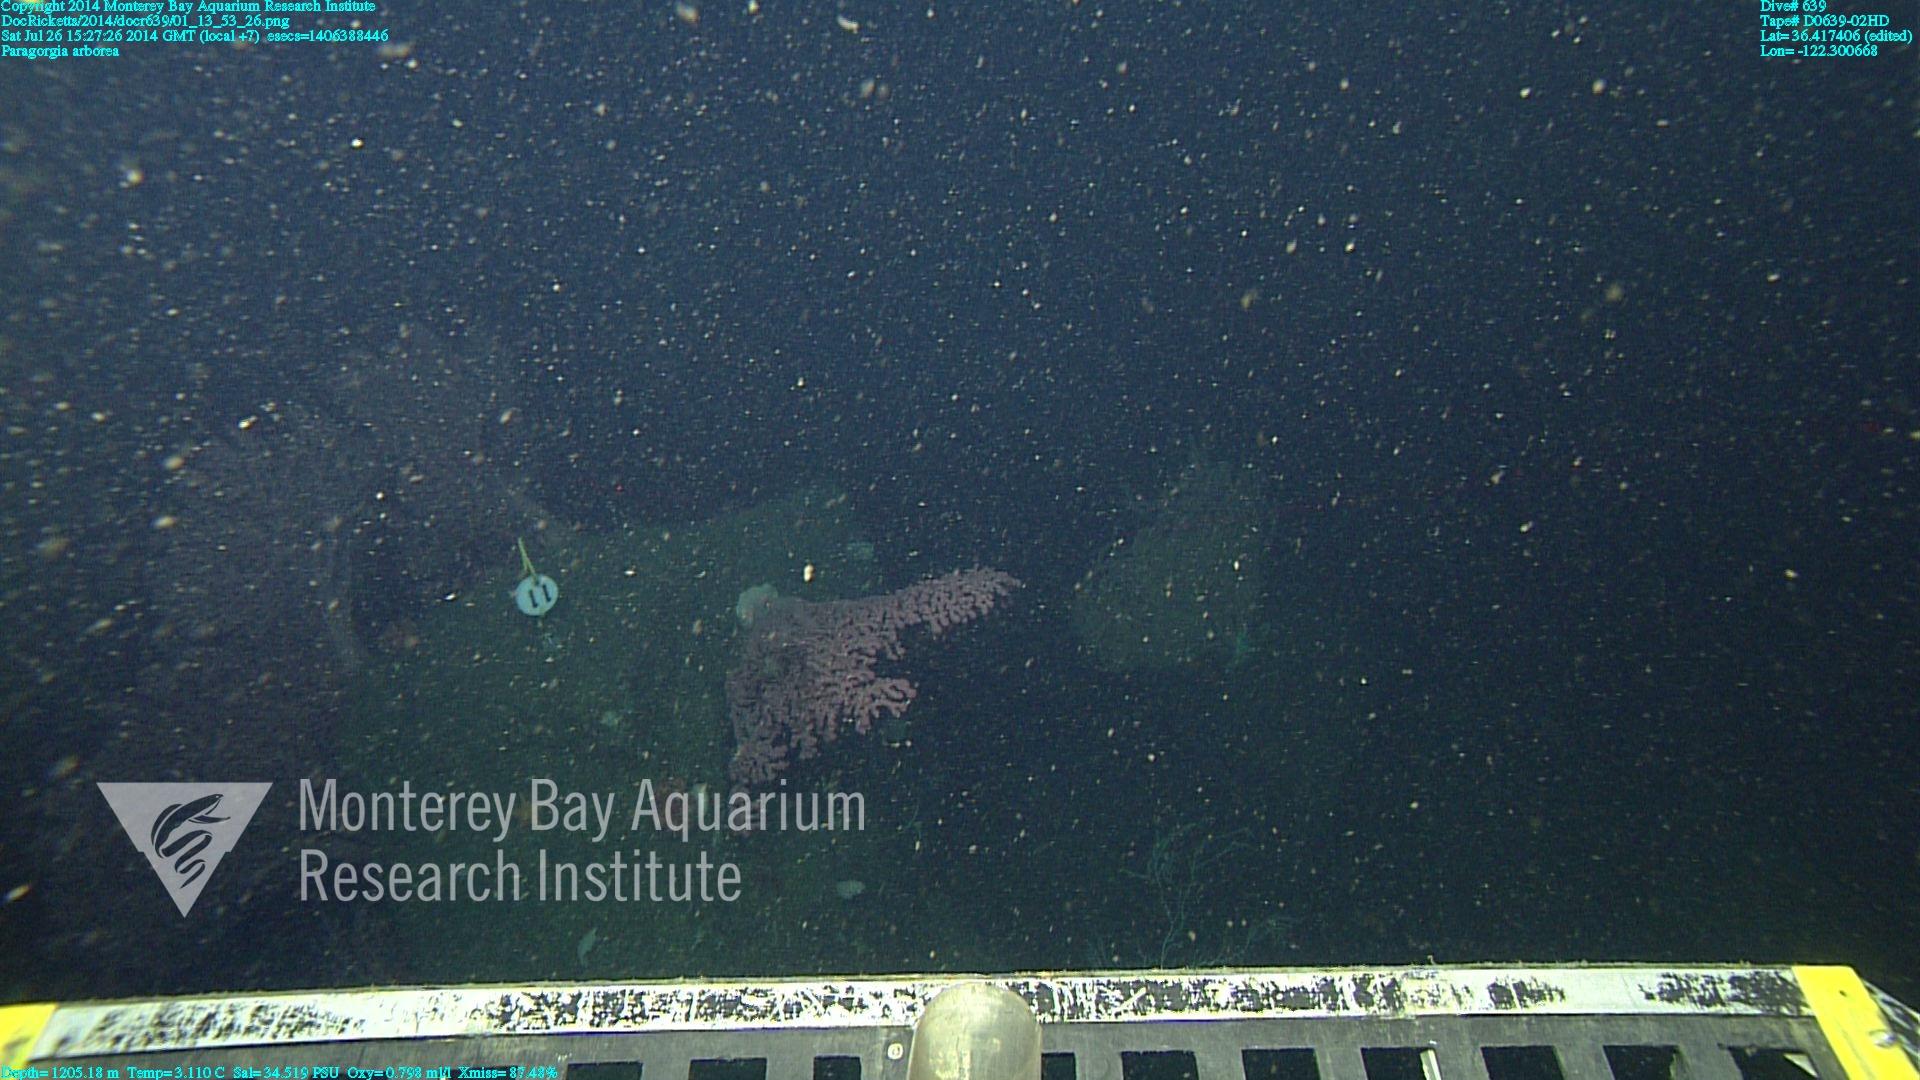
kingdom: Animalia
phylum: Cnidaria
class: Anthozoa
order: Scleralcyonacea
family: Coralliidae
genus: Paragorgia
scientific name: Paragorgia arborea
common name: Bubble gum coral
